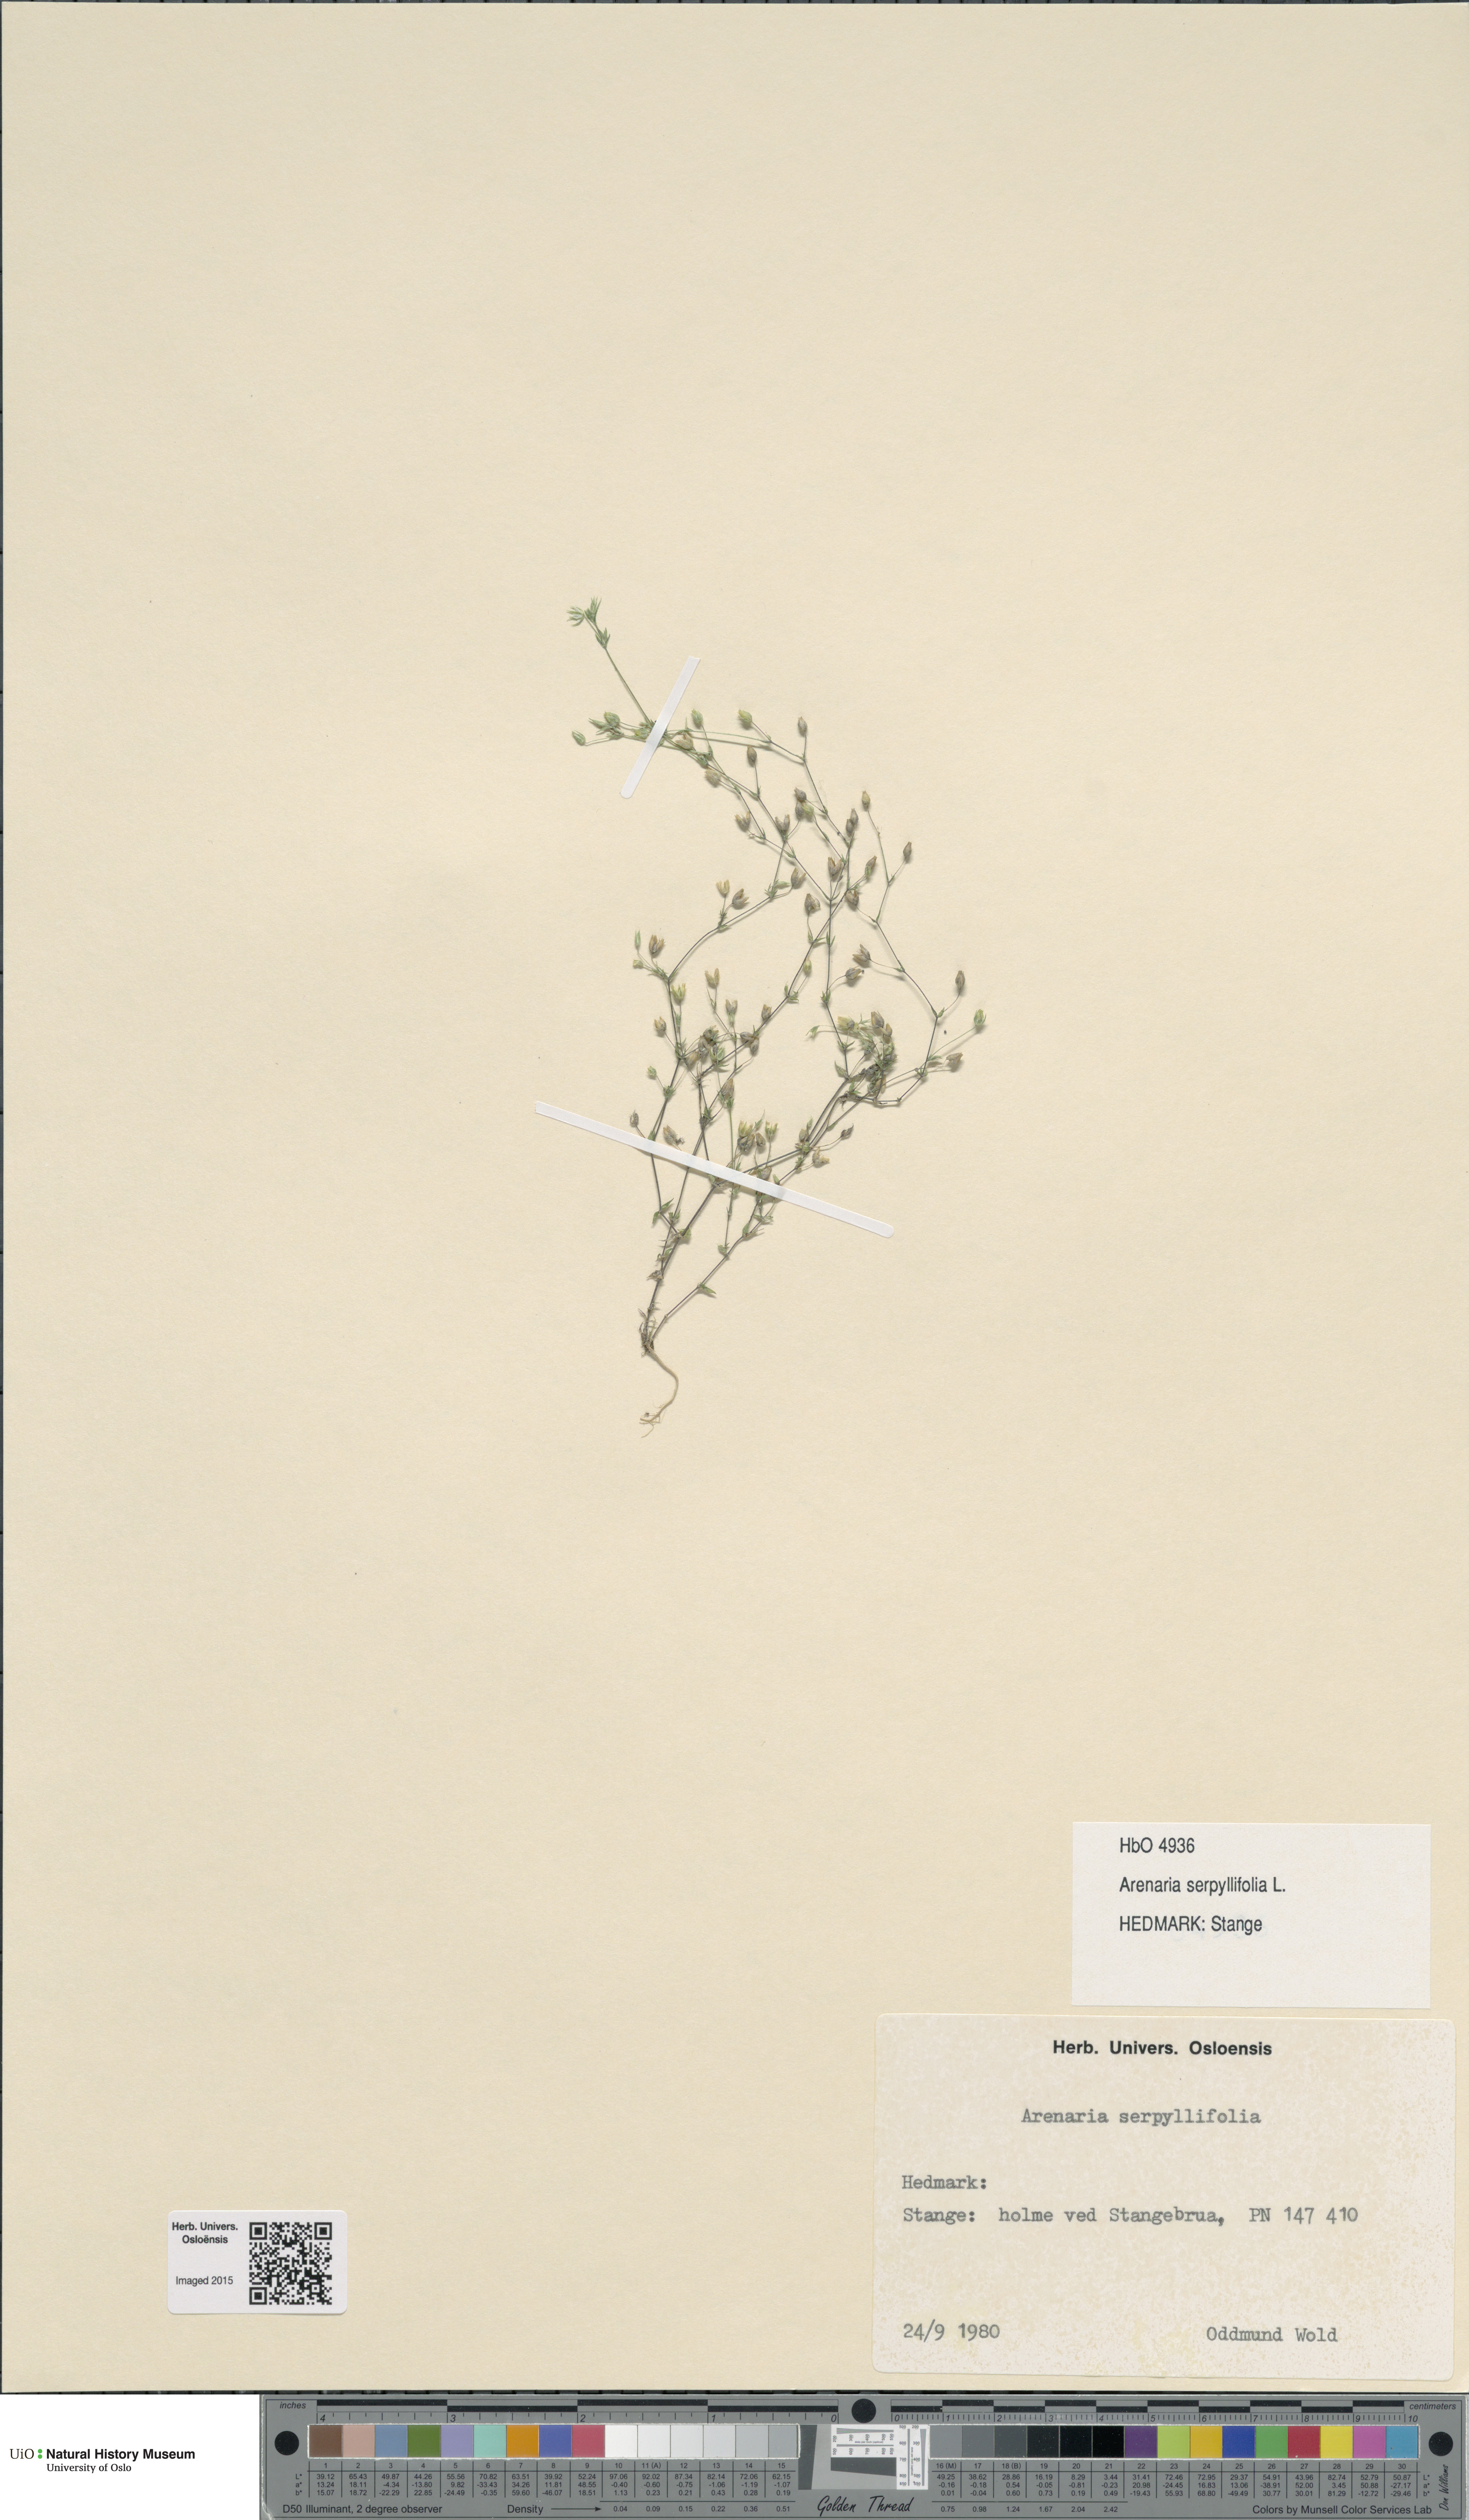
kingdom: Plantae
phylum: Tracheophyta
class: Magnoliopsida
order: Caryophyllales
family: Caryophyllaceae
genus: Arenaria
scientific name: Arenaria serpyllifolia
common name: Thyme-leaved sandwort
